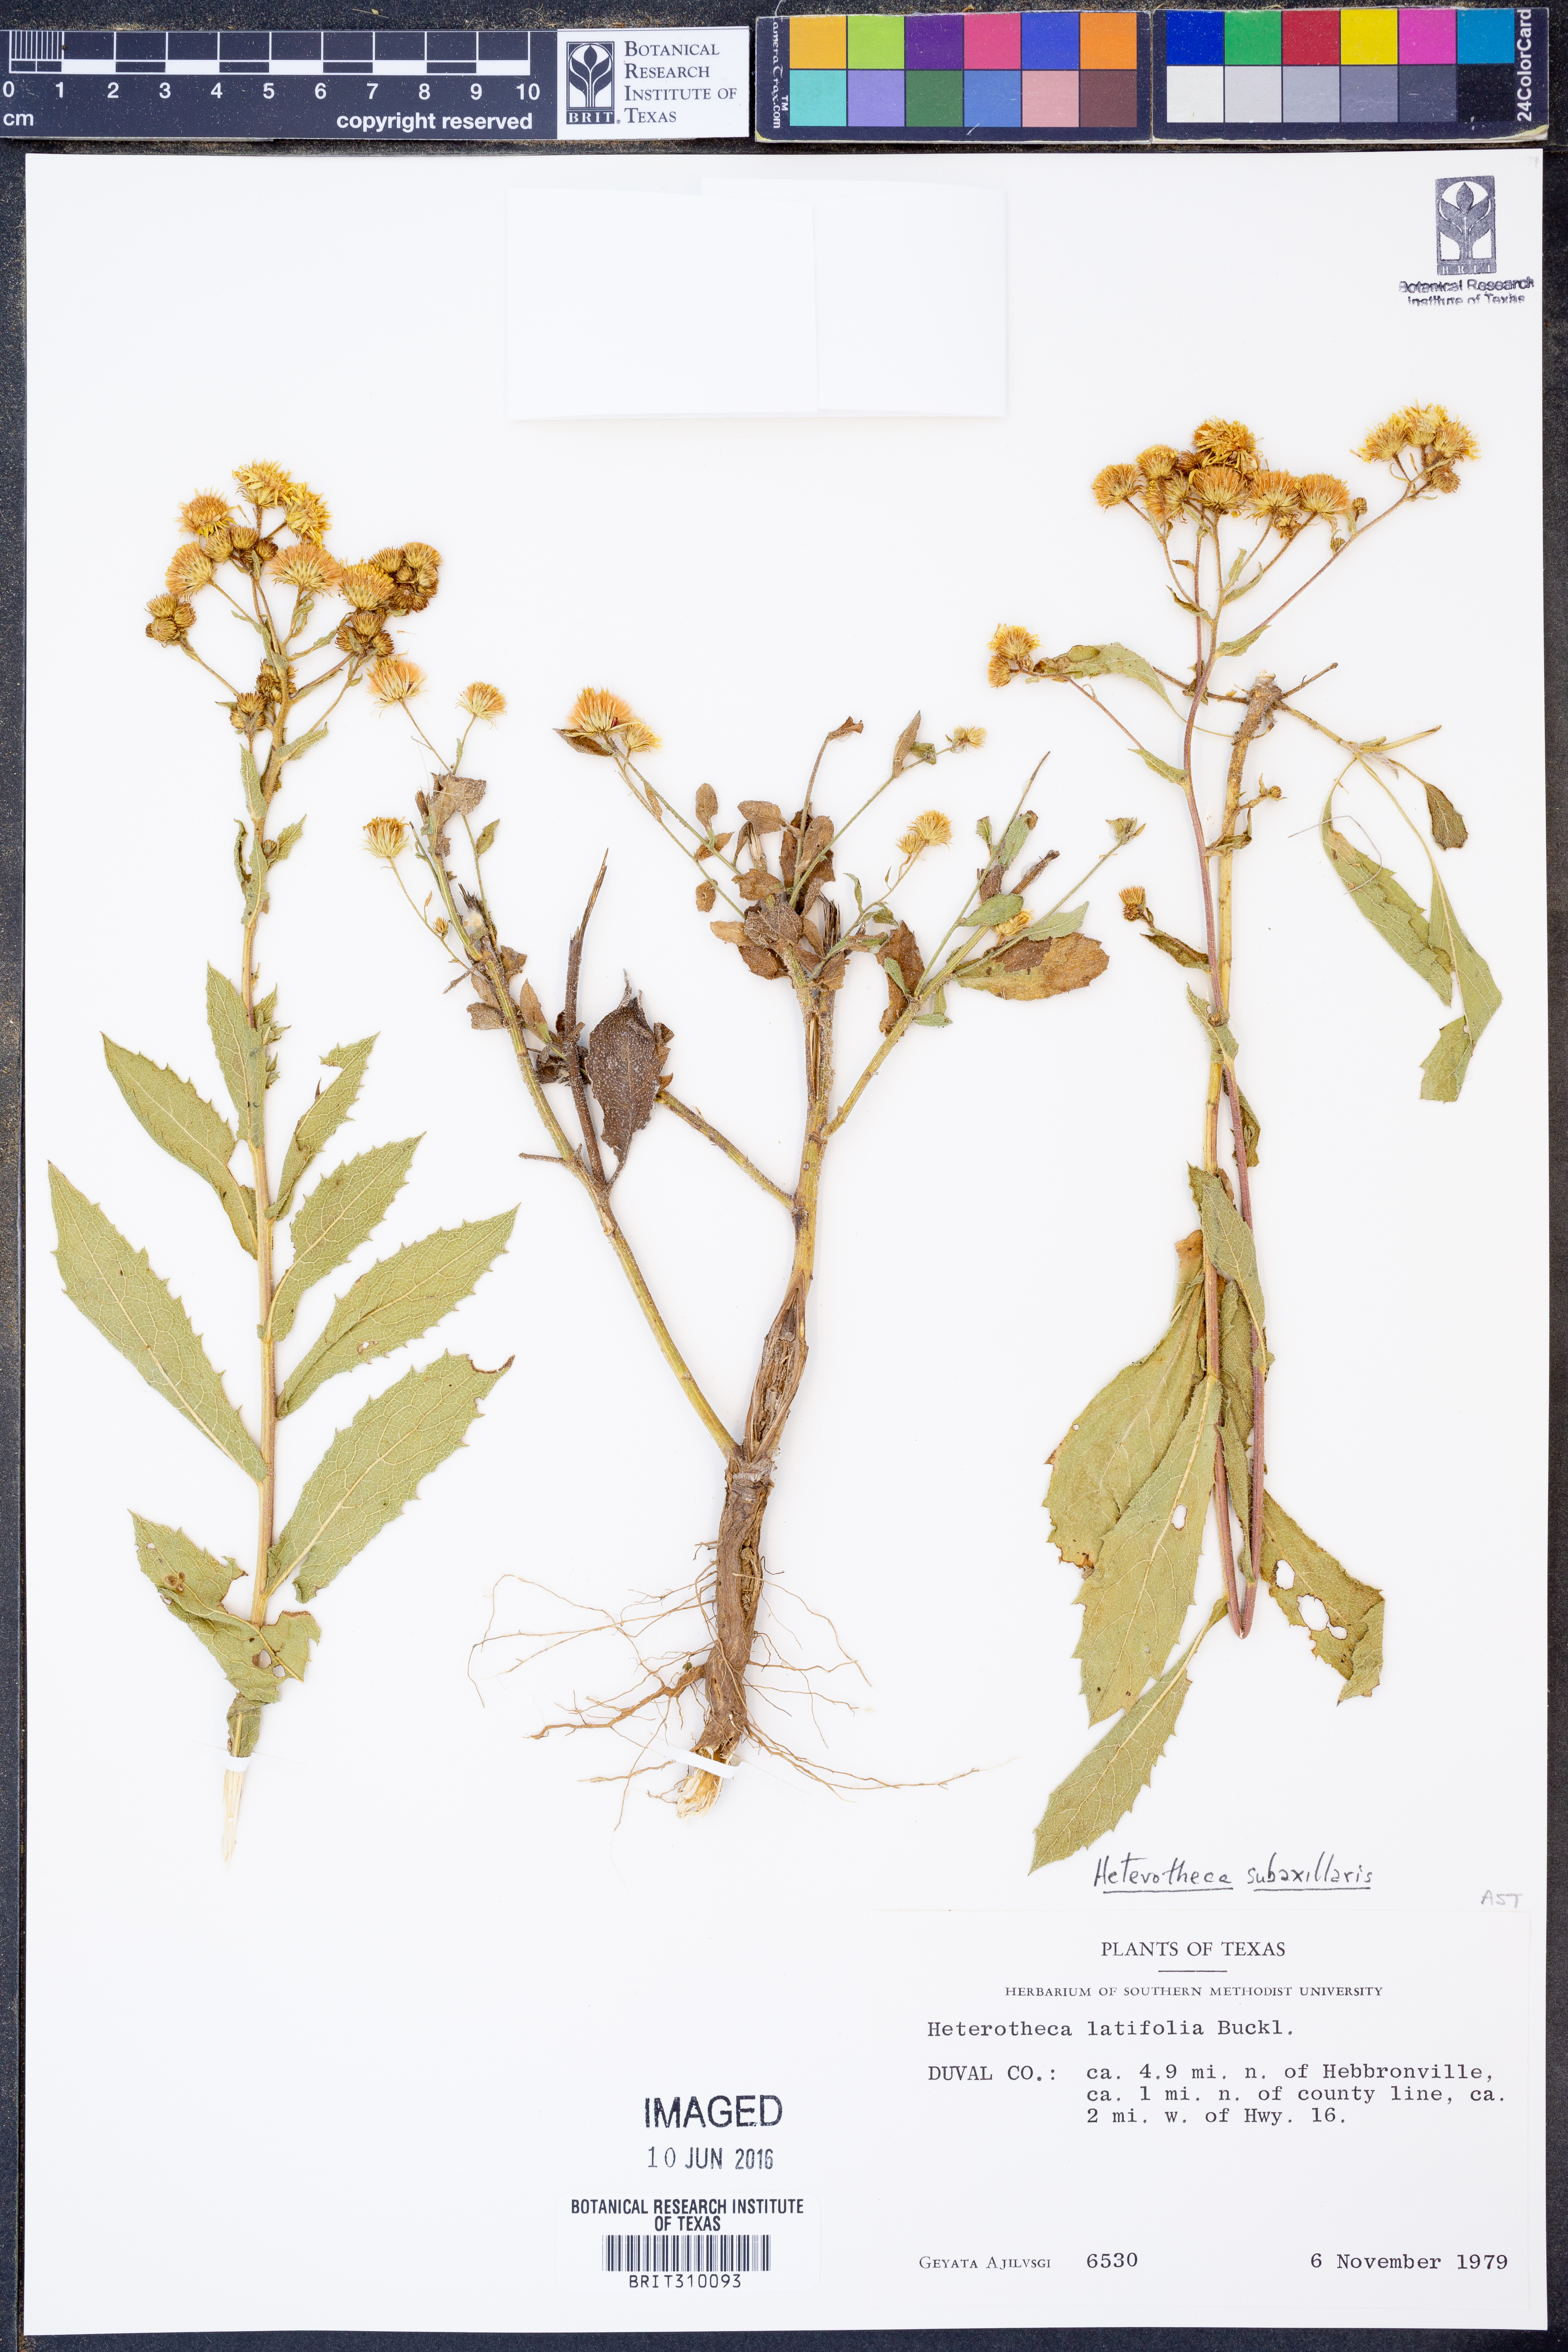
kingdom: Plantae
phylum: Tracheophyta
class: Magnoliopsida
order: Asterales
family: Asteraceae
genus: Heterotheca
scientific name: Heterotheca subaxillaris
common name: Camphorweed
